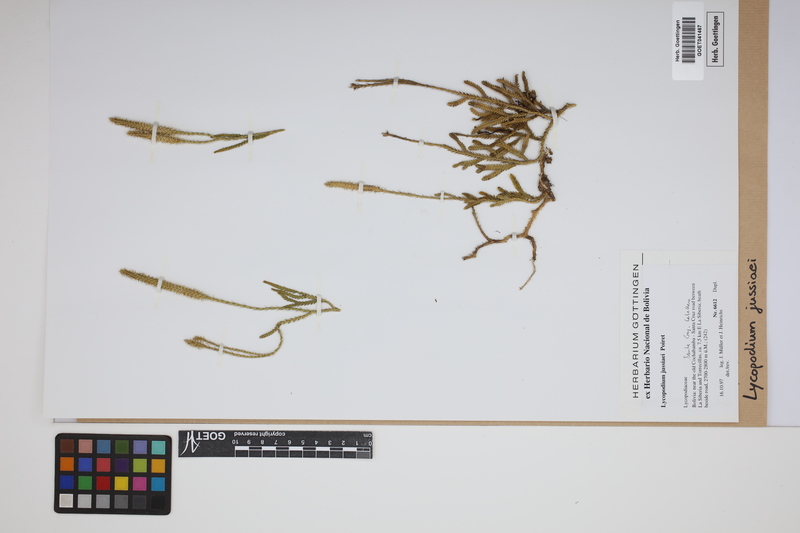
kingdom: Plantae
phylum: Tracheophyta
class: Lycopodiopsida
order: Lycopodiales
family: Lycopodiaceae
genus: Diphasium
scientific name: Diphasium jussiaei
